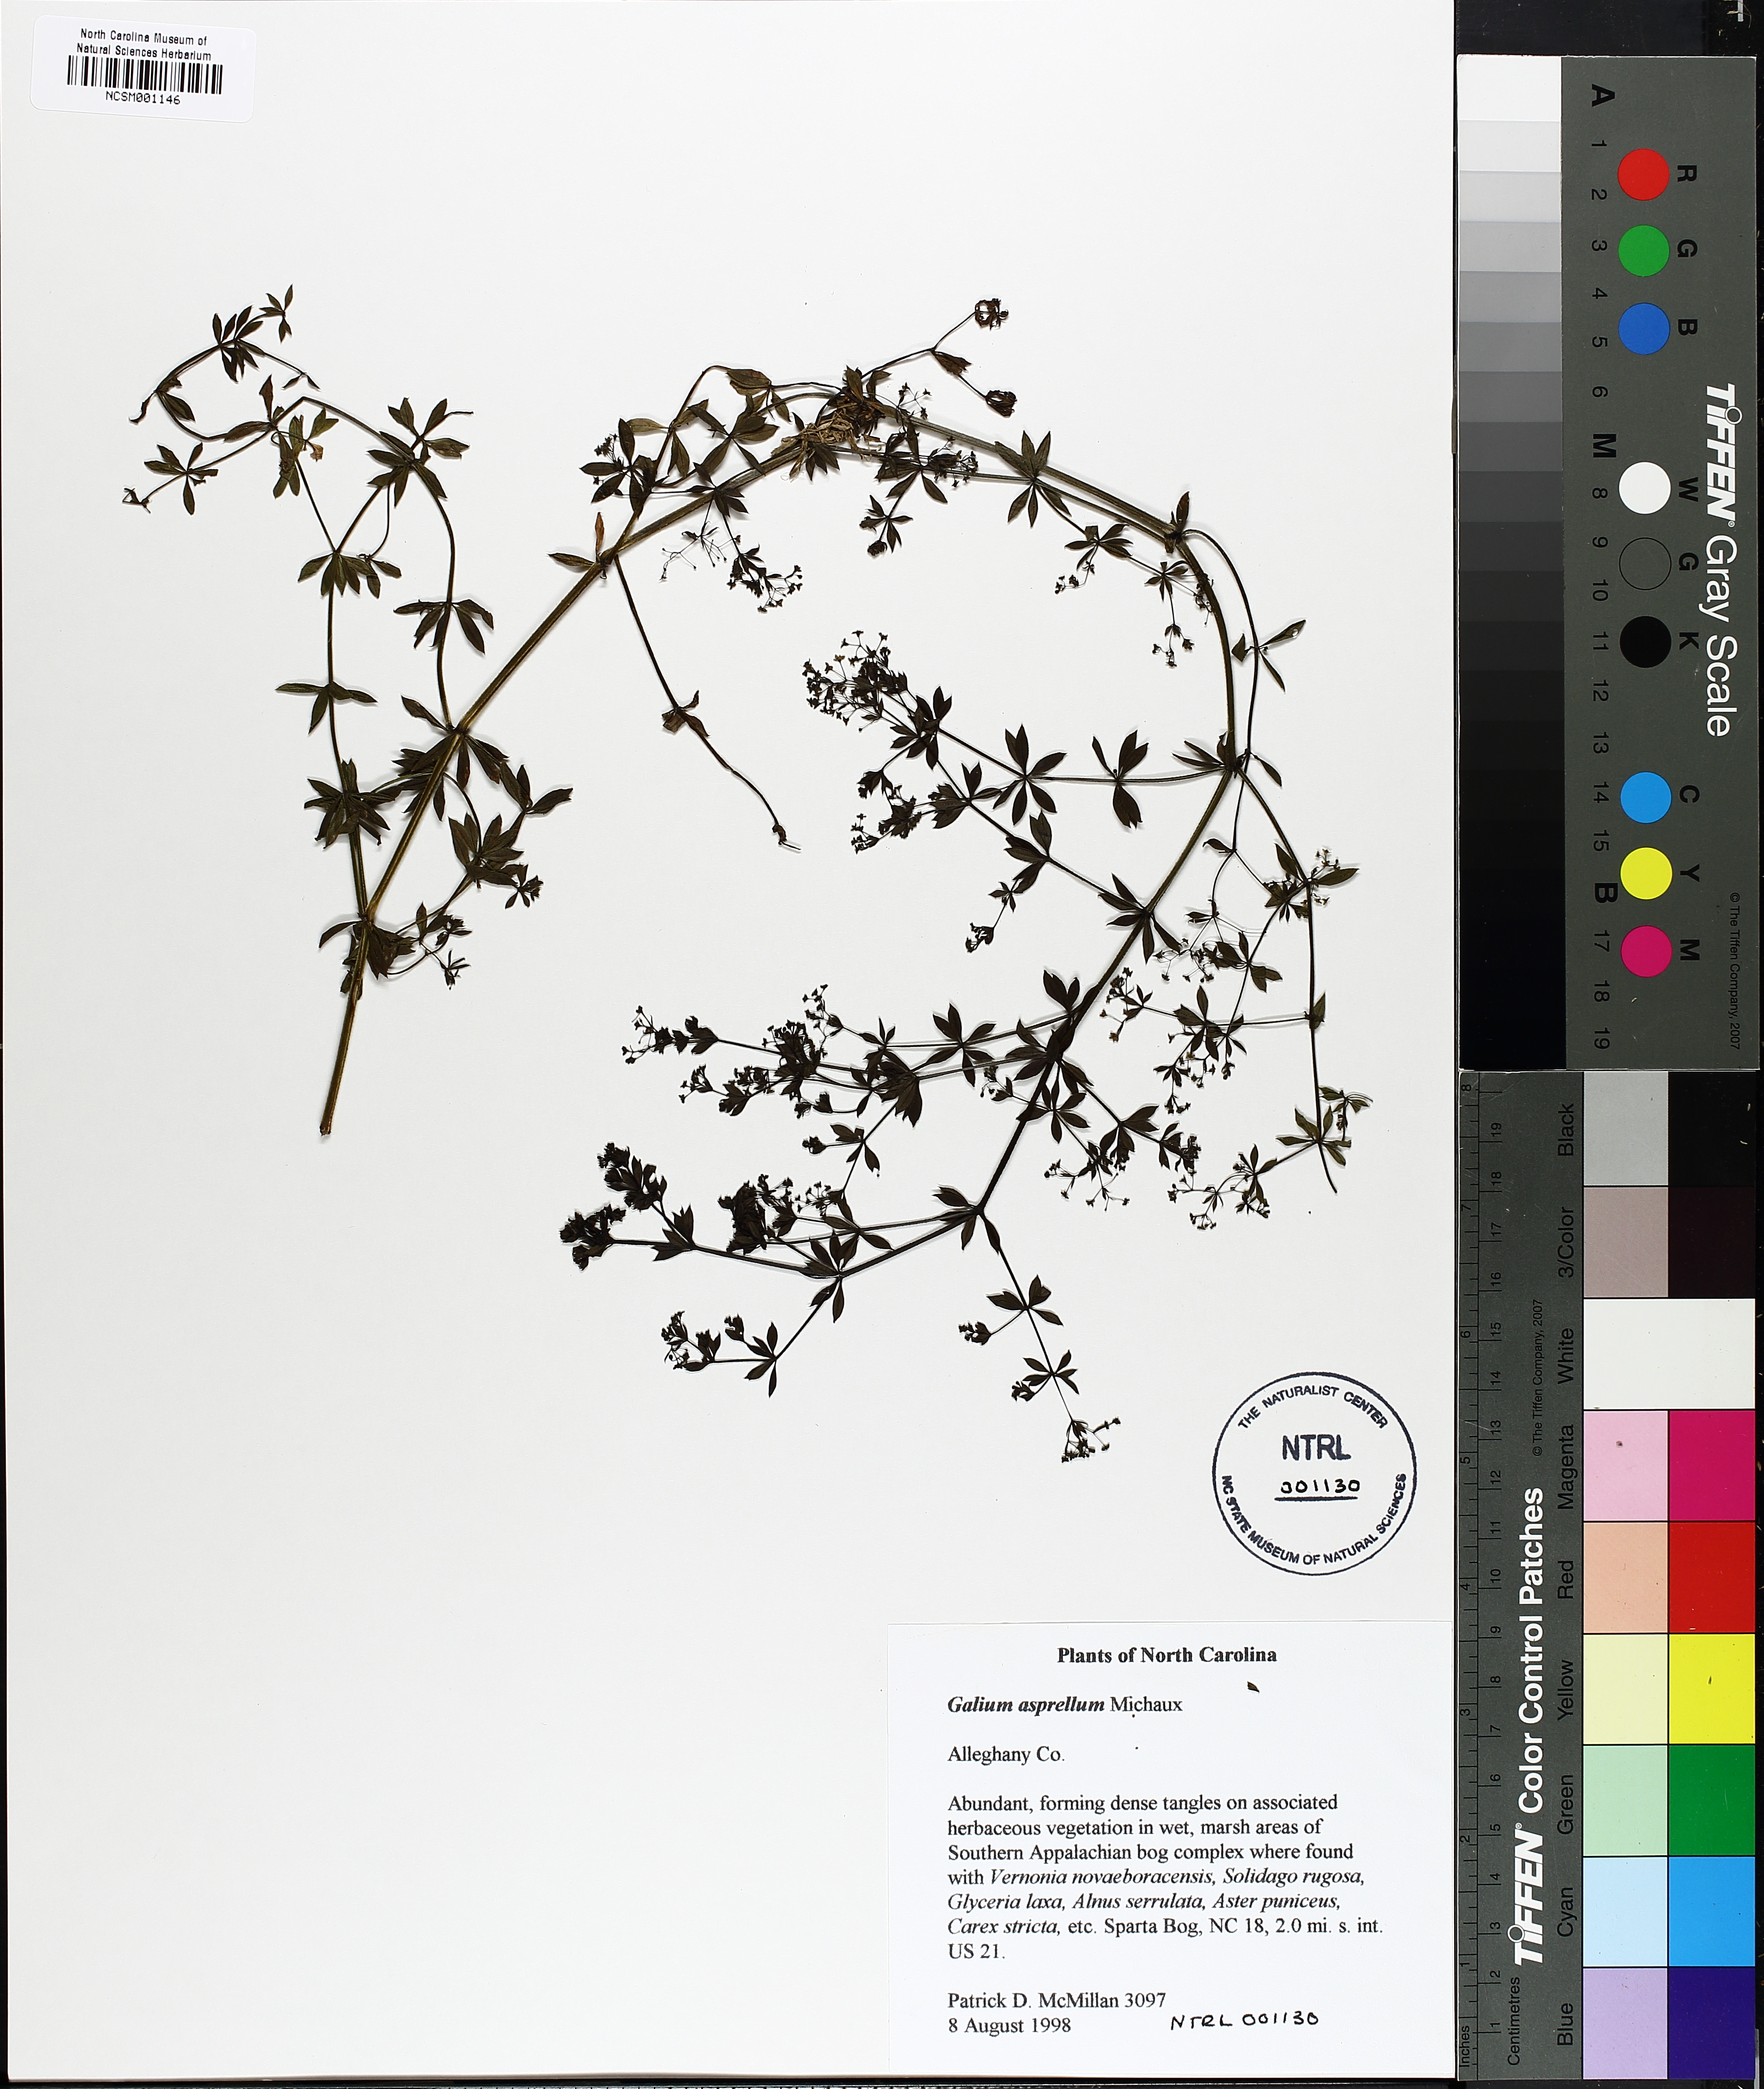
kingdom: Plantae
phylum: Tracheophyta
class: Magnoliopsida
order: Gentianales
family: Rubiaceae
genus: Galium
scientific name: Galium asprellum
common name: Rough bedstraw
